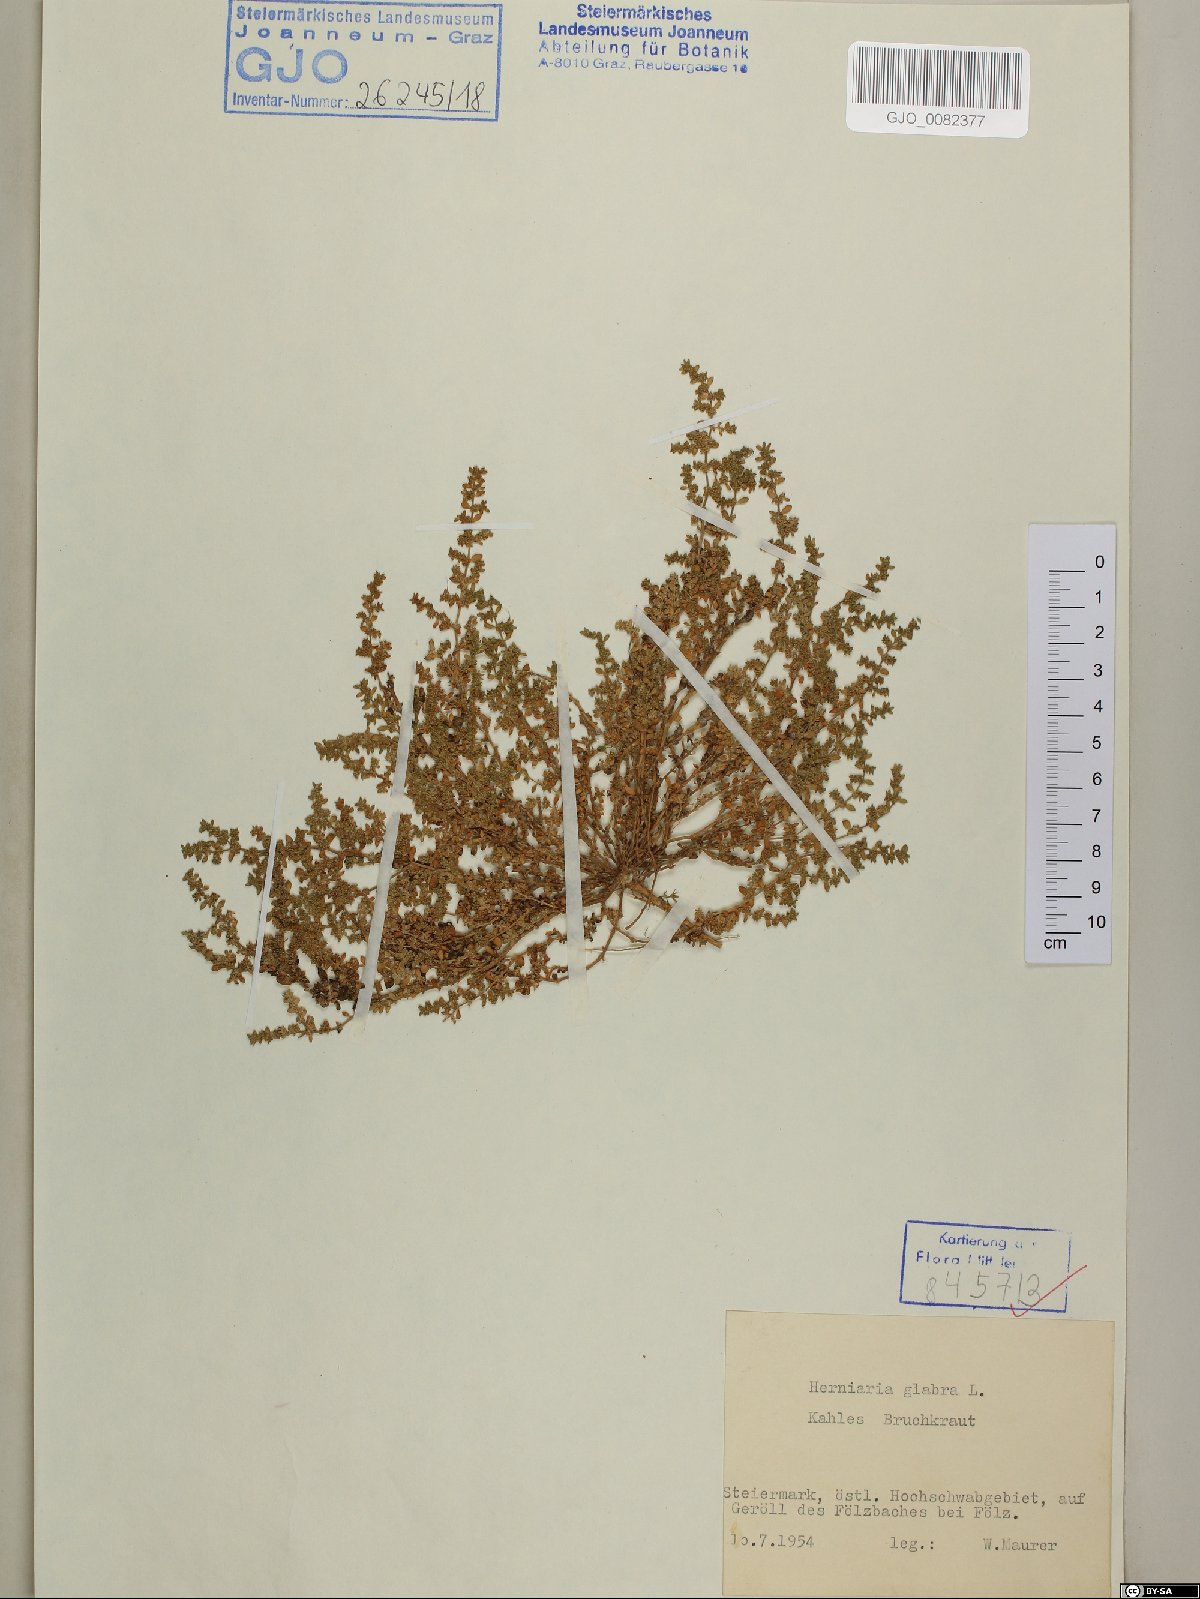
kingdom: Plantae
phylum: Tracheophyta
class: Magnoliopsida
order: Caryophyllales
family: Caryophyllaceae
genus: Herniaria
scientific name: Herniaria glabra
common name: Smooth rupturewort
